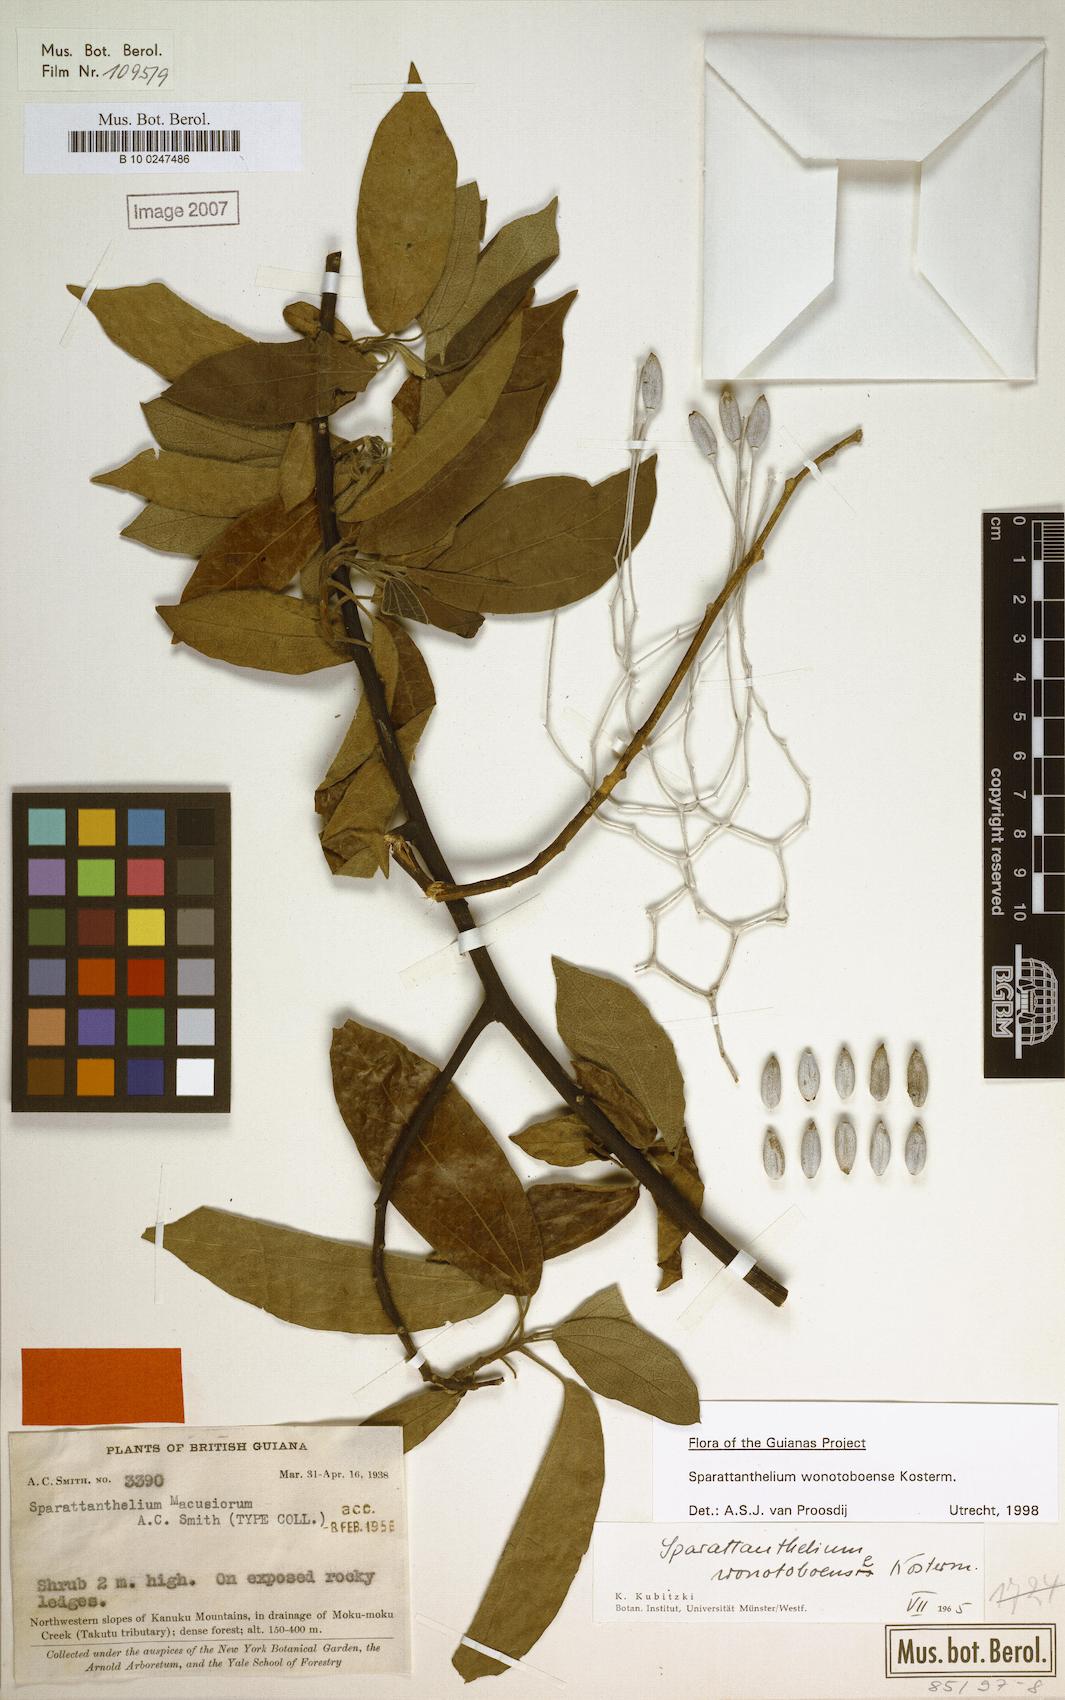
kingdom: Plantae
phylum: Tracheophyta
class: Magnoliopsida
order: Laurales
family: Hernandiaceae
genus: Sparattanthelium
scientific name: Sparattanthelium wonotoboense
